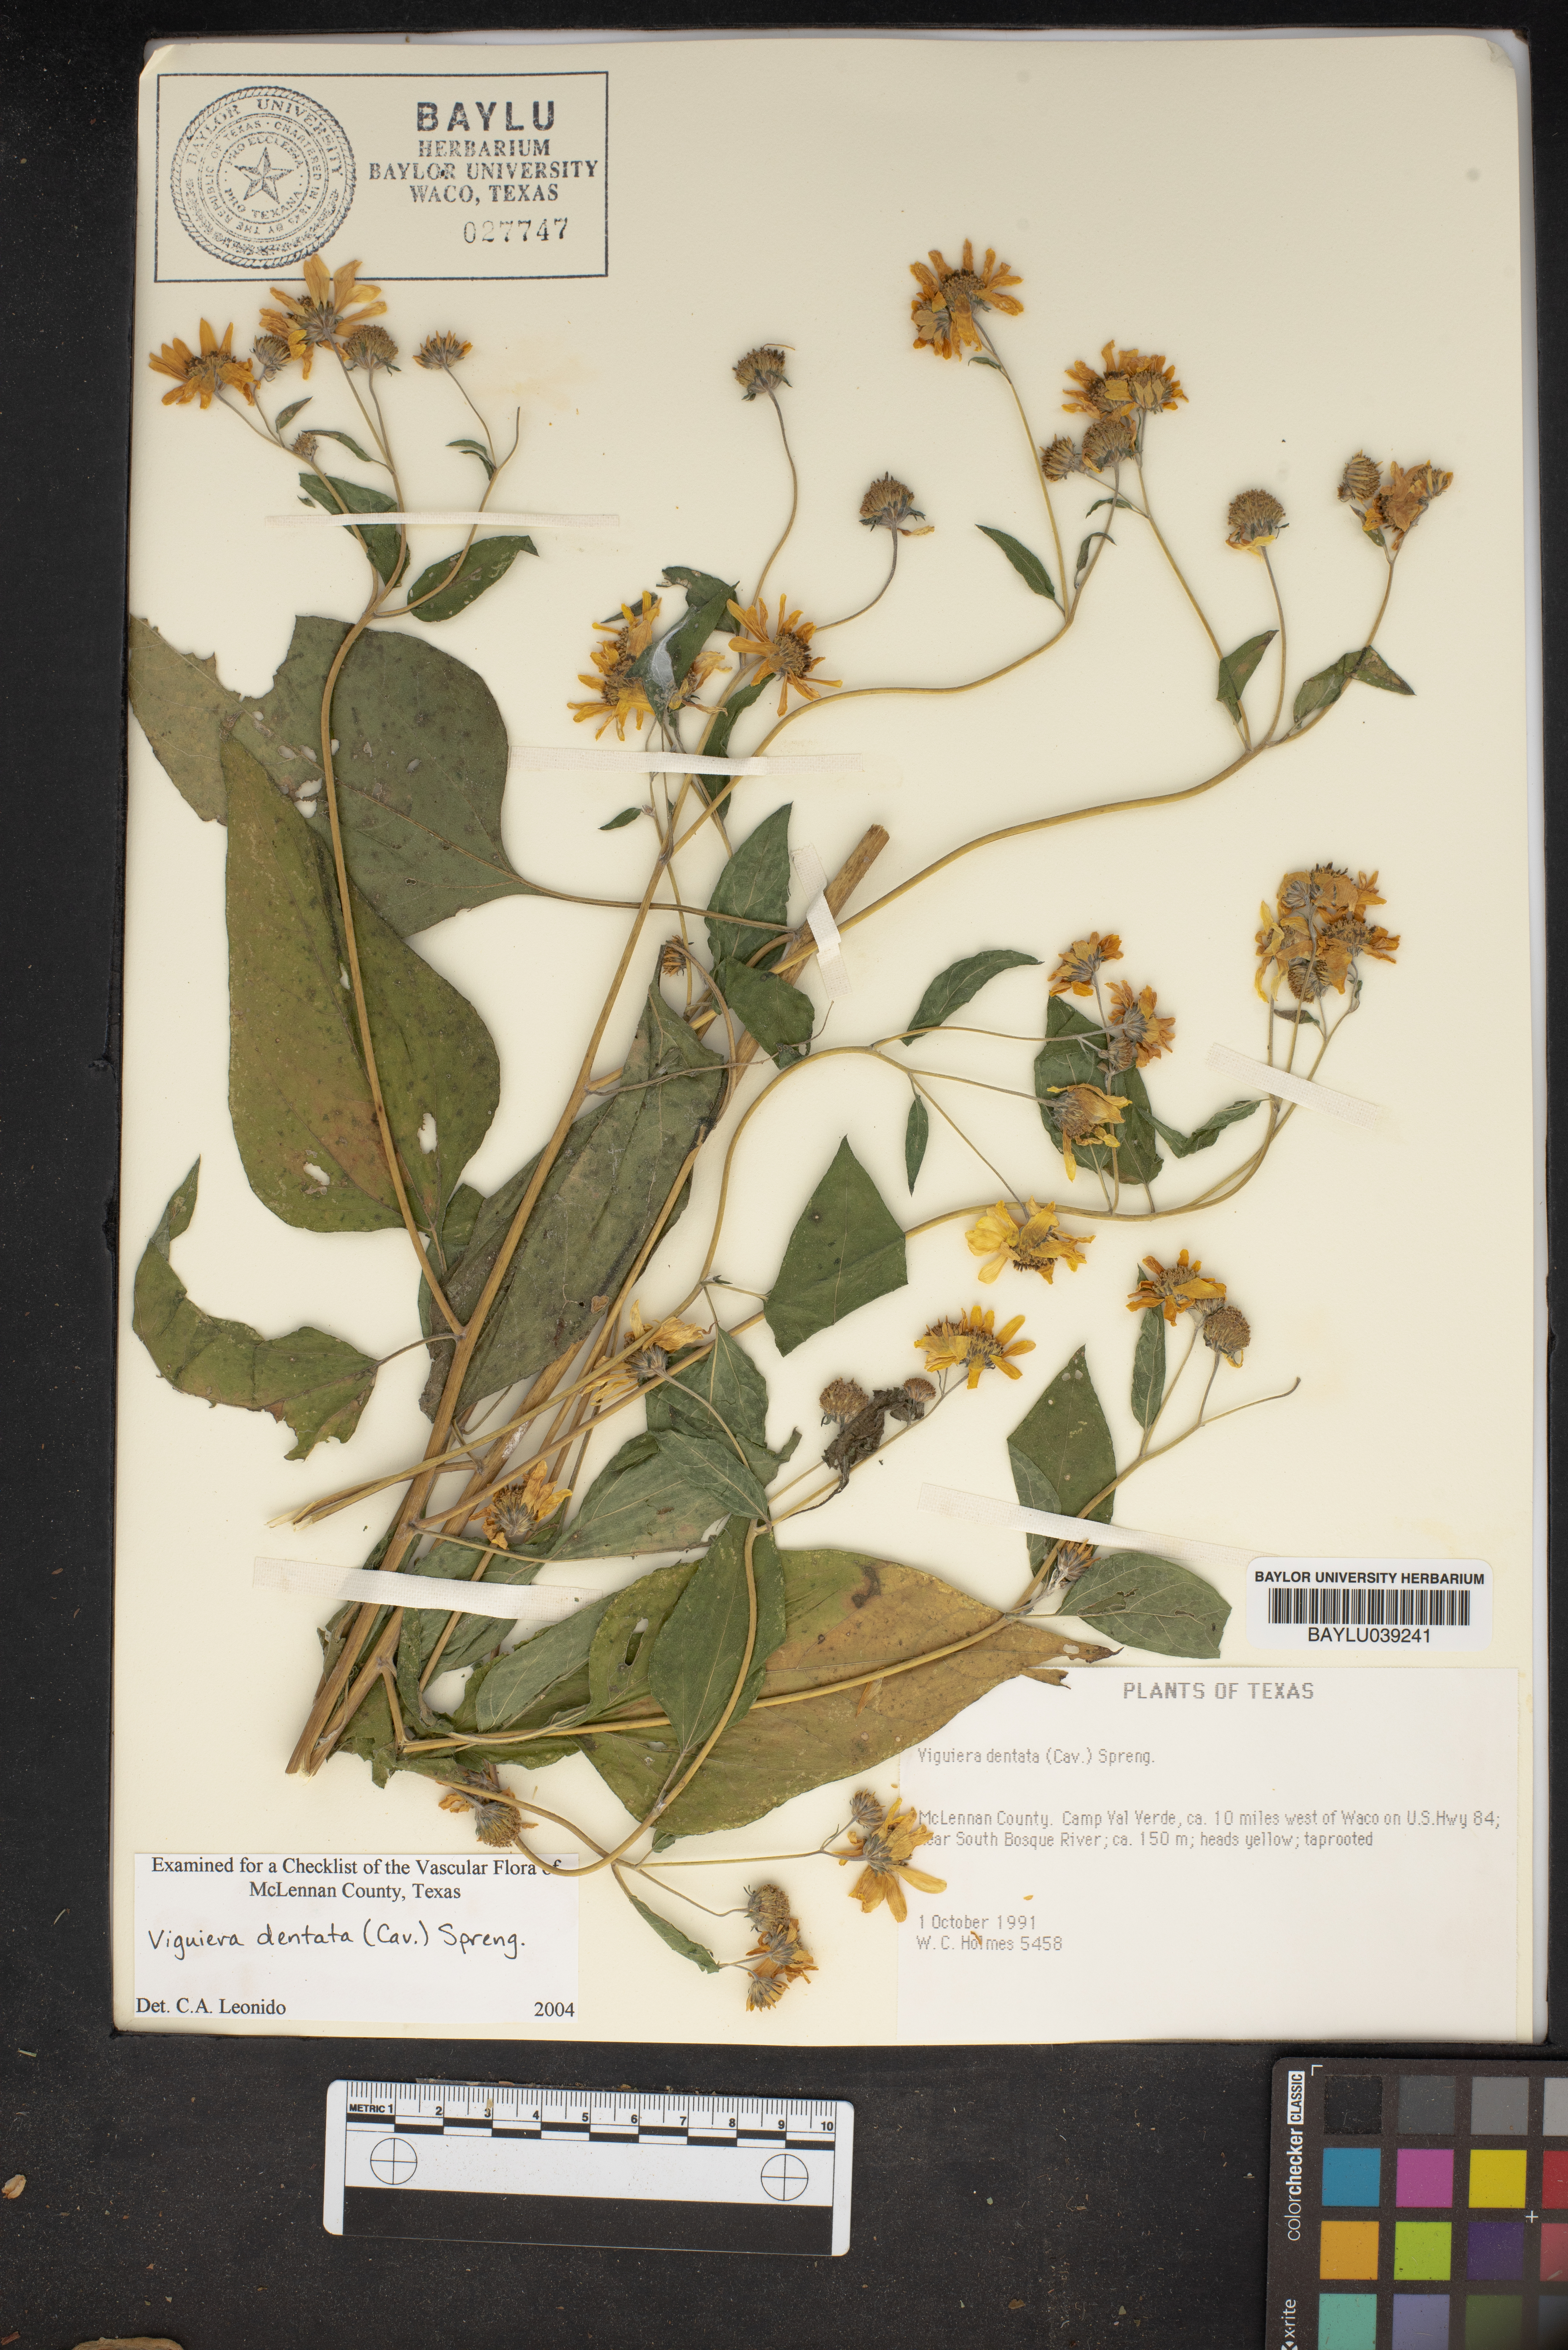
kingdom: Plantae
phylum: Tracheophyta
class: Magnoliopsida
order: Asterales
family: Asteraceae
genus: Viguiera
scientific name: Viguiera dentata
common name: Toothleaf
